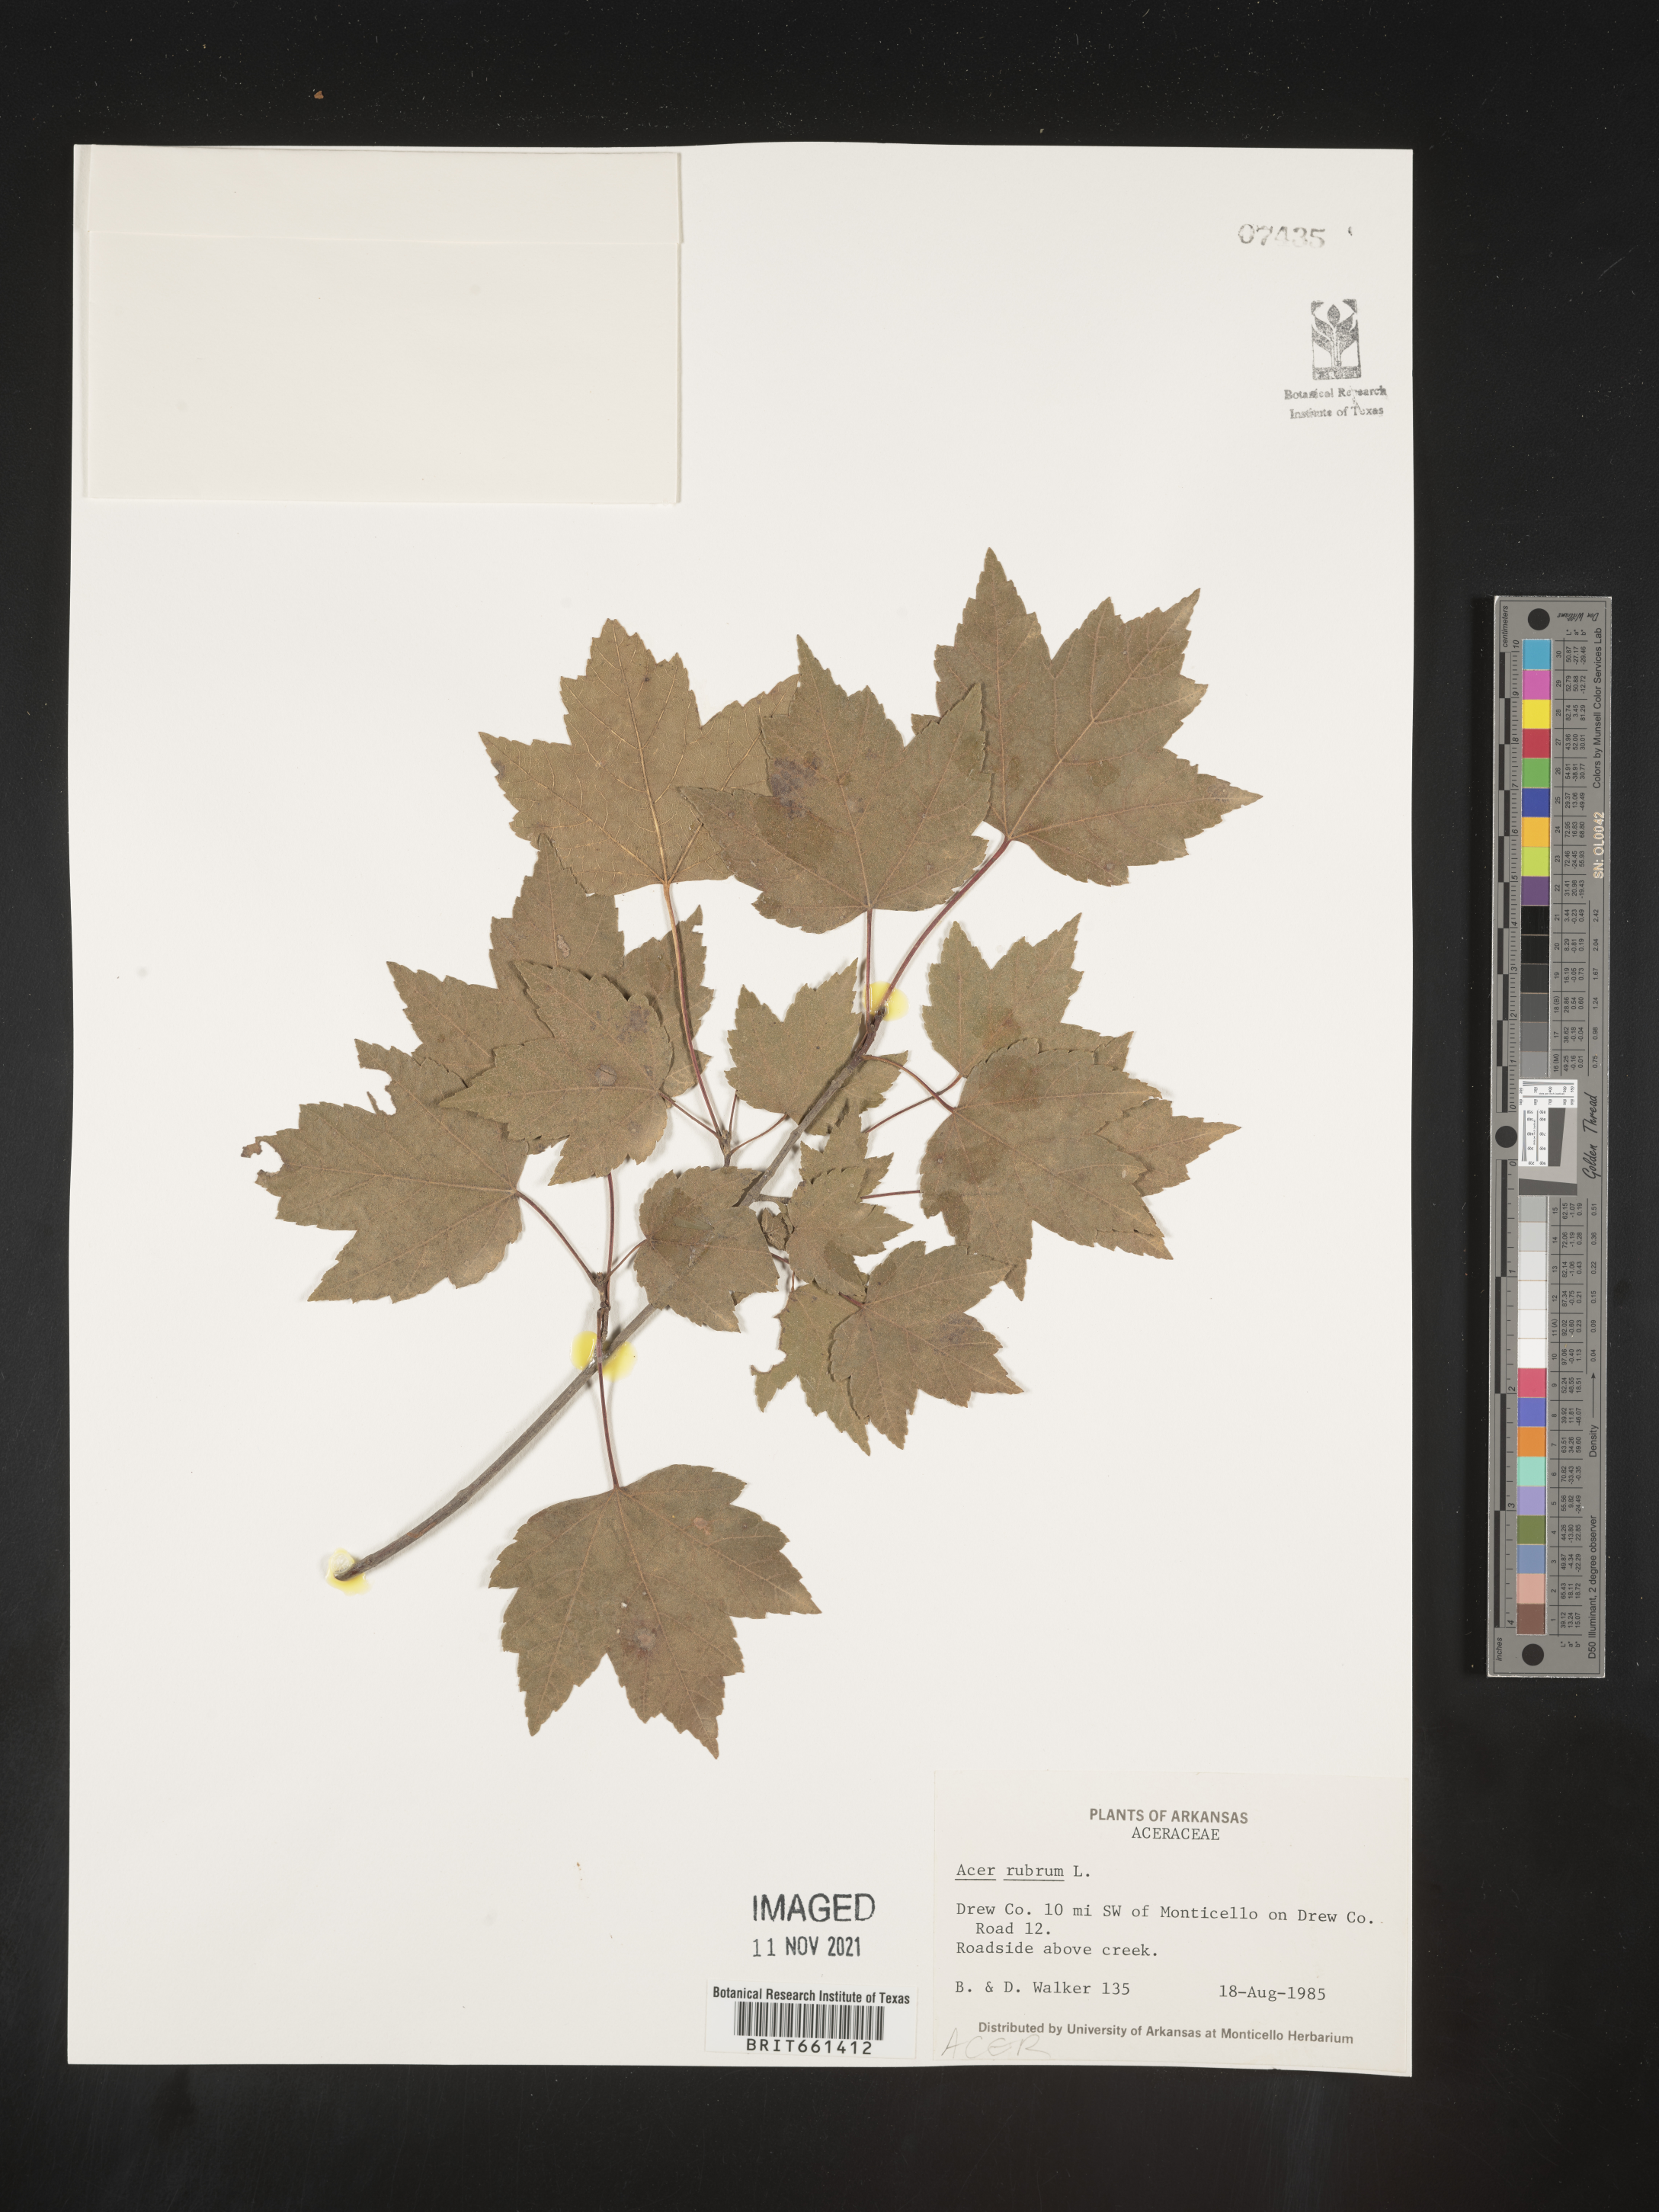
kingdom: Plantae
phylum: Tracheophyta
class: Magnoliopsida
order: Sapindales
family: Sapindaceae
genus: Acer
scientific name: Acer rubrum
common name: Red maple
